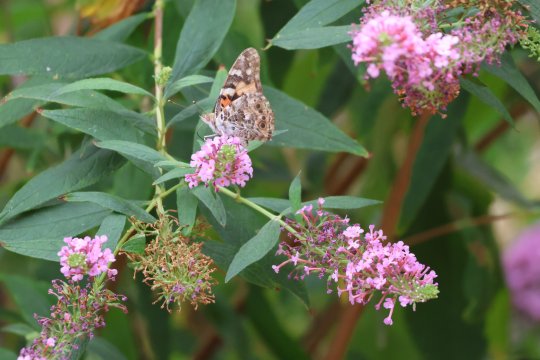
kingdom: Animalia
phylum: Arthropoda
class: Insecta
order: Lepidoptera
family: Nymphalidae
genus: Vanessa
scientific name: Vanessa cardui
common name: Painted Lady
